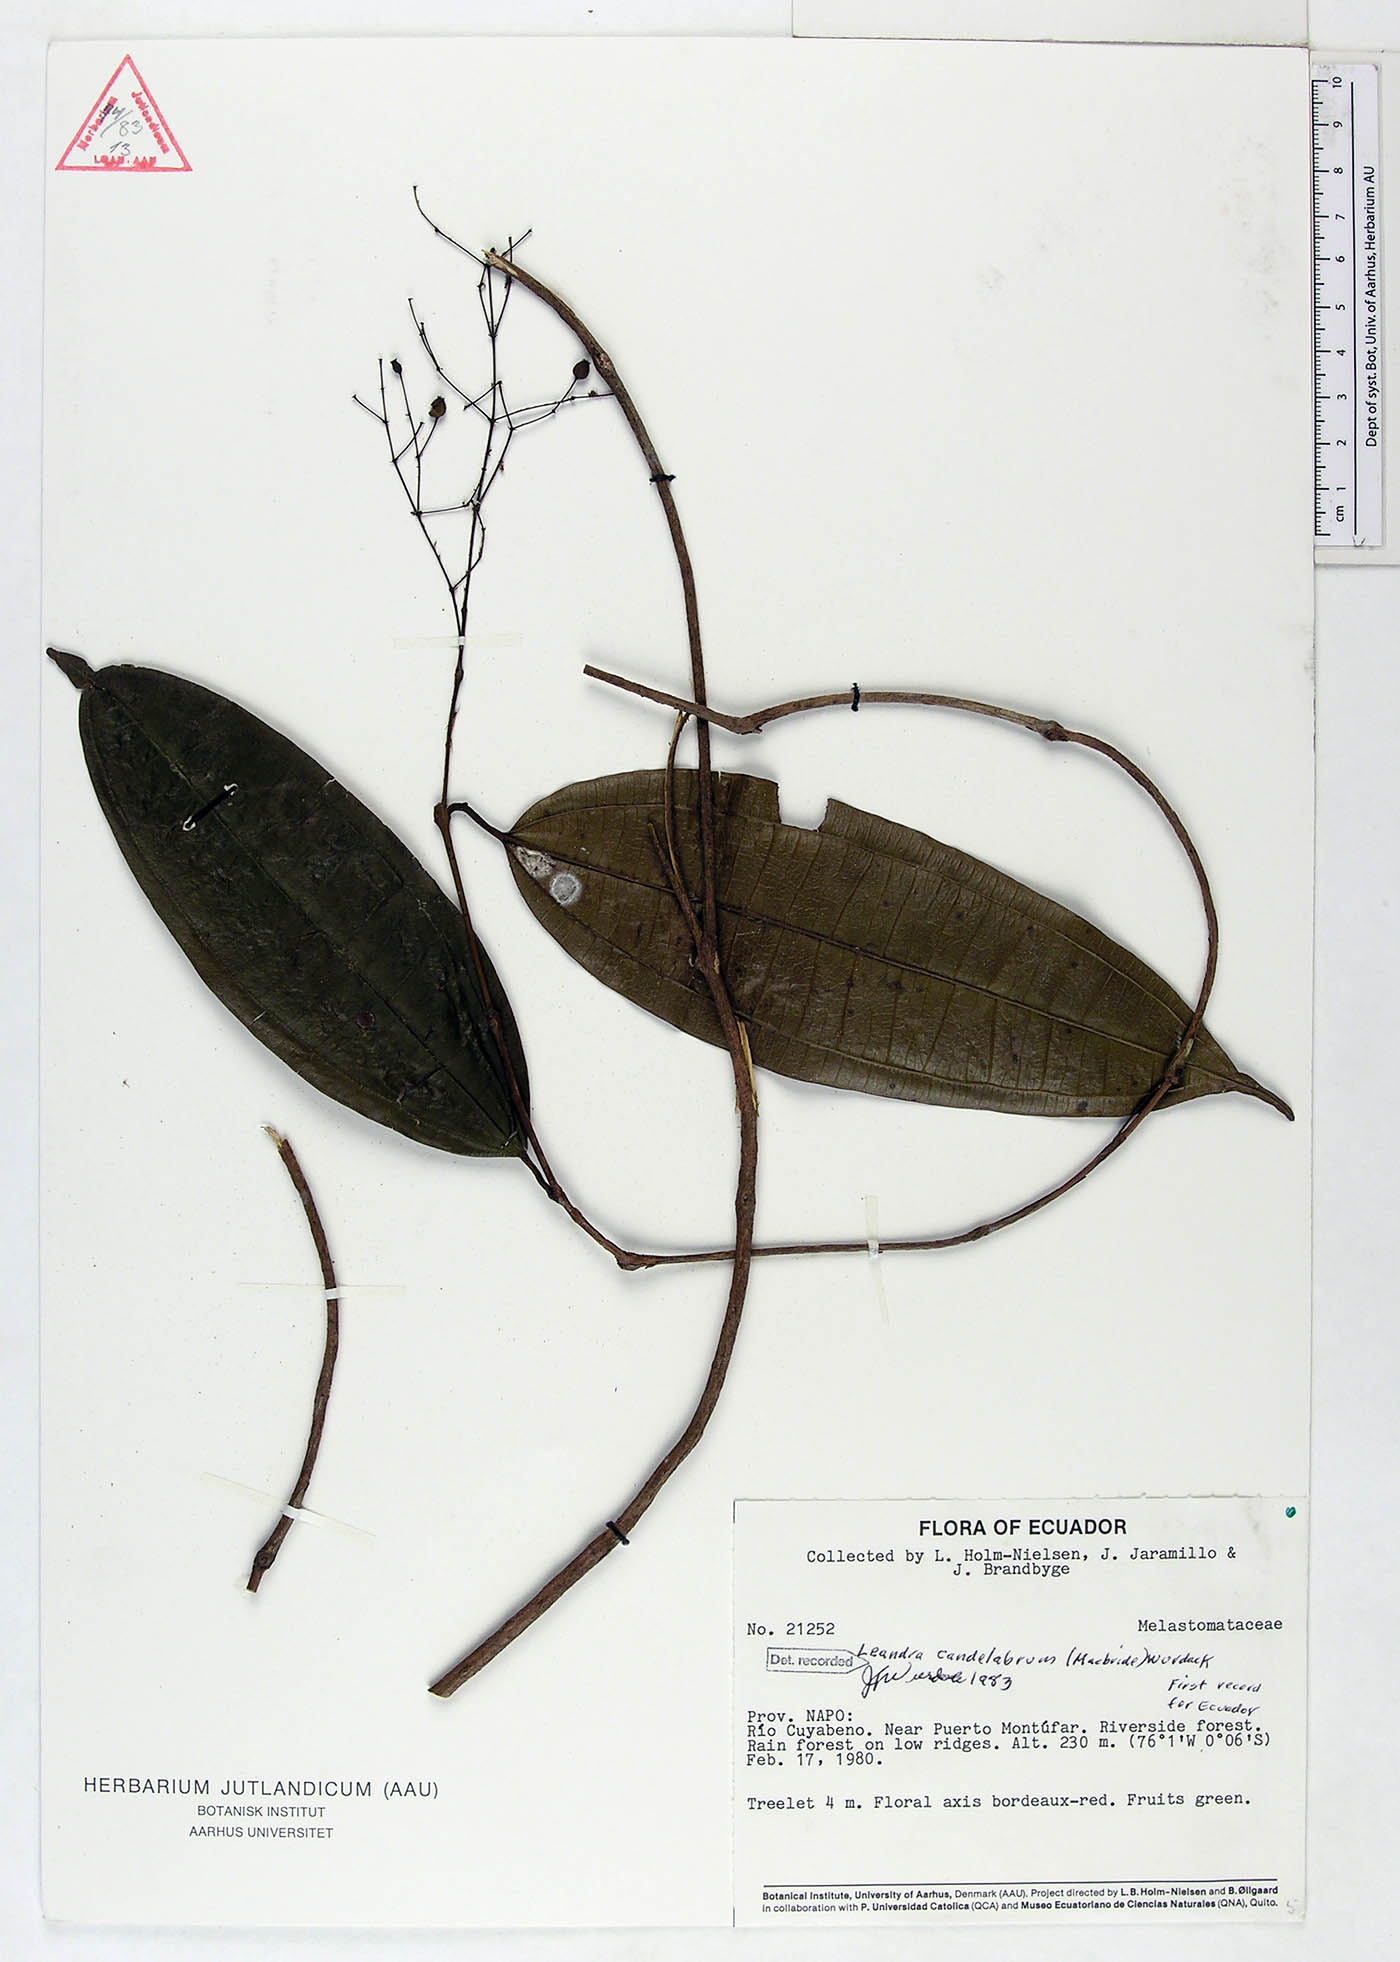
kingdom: Plantae
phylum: Tracheophyta
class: Magnoliopsida
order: Myrtales
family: Melastomataceae
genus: Miconia
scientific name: Miconia candelabrum
